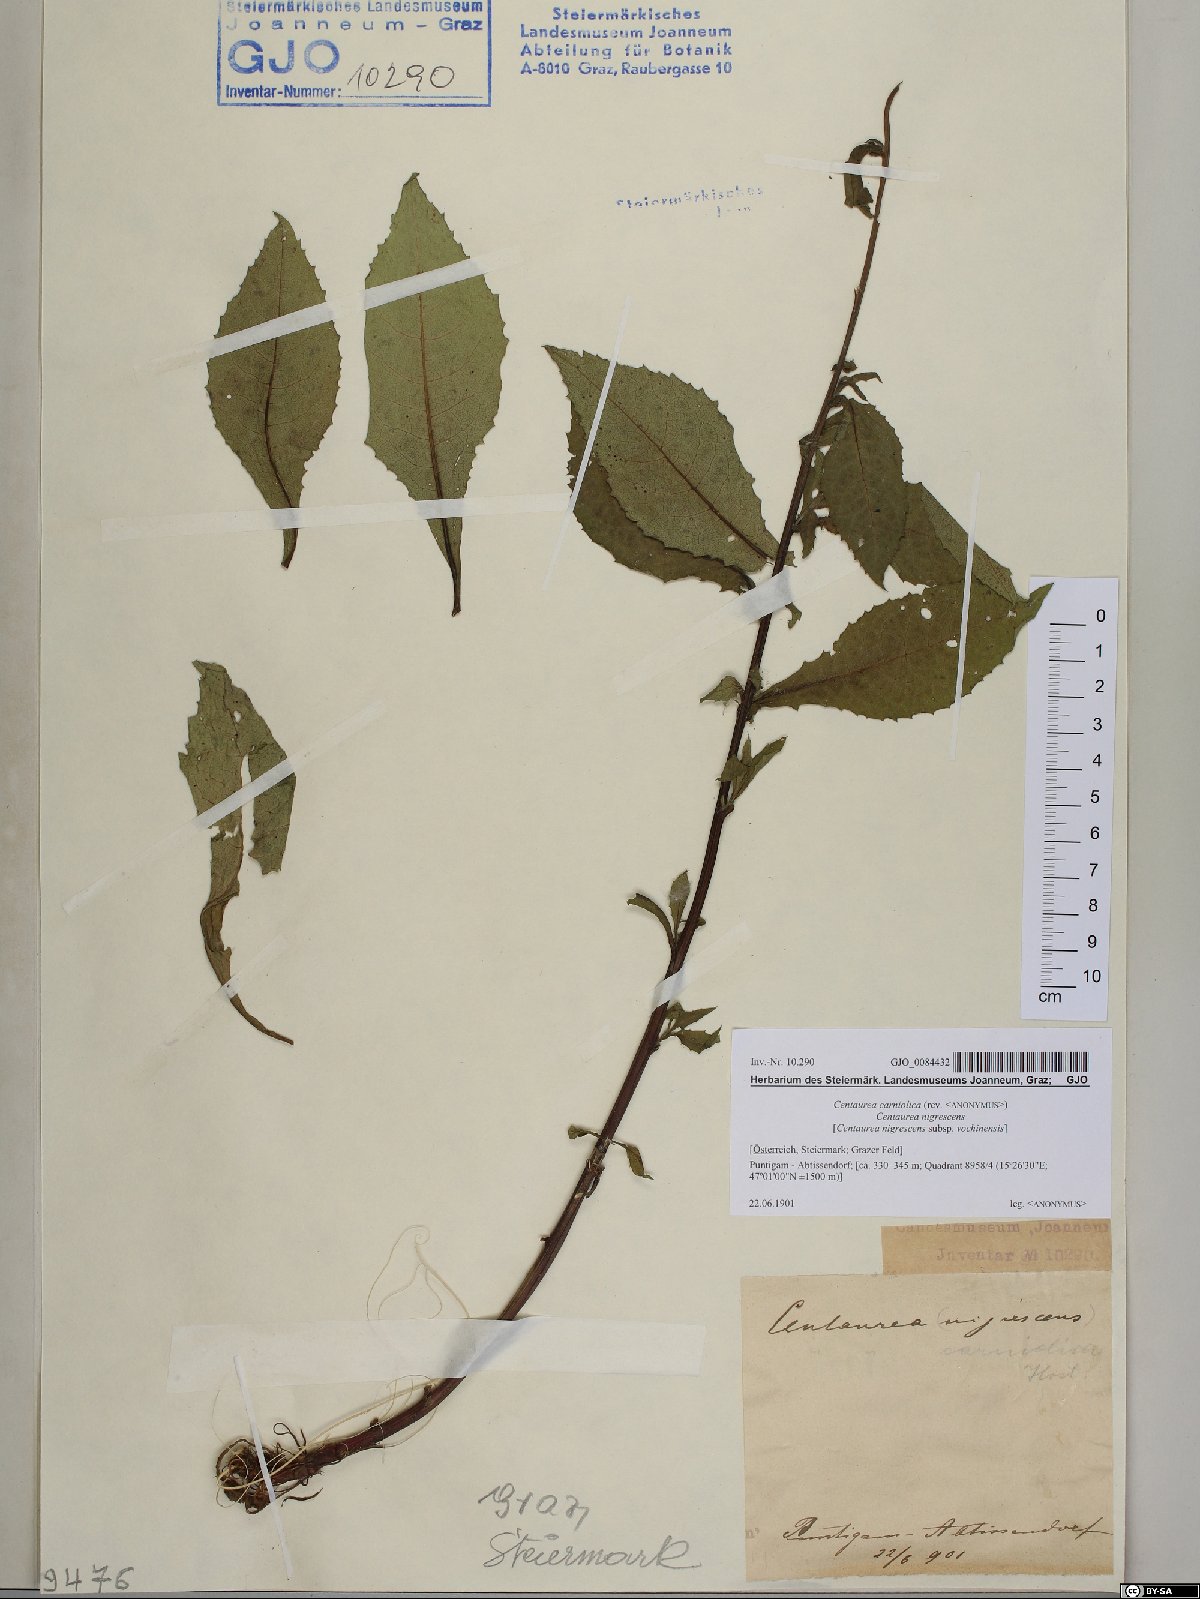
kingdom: Plantae
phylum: Tracheophyta
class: Magnoliopsida
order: Asterales
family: Asteraceae
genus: Centaurea
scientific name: Centaurea carniolica
